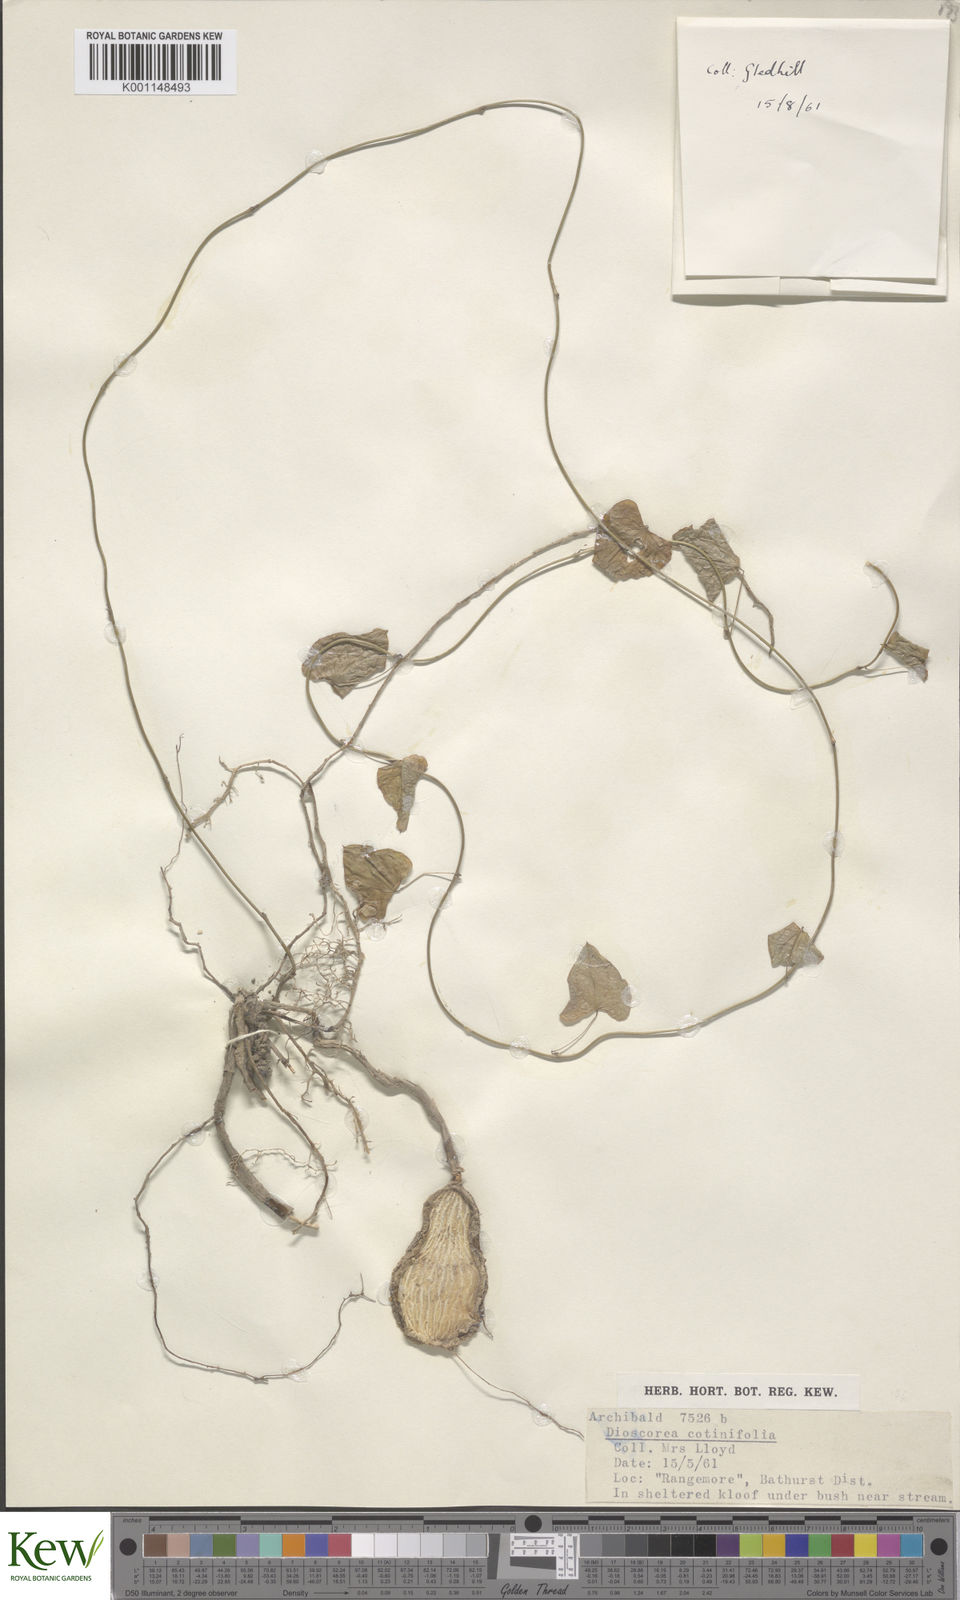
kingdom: Plantae
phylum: Tracheophyta
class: Liliopsida
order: Dioscoreales
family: Dioscoreaceae
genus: Dioscorea
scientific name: Dioscorea cotinifolia
